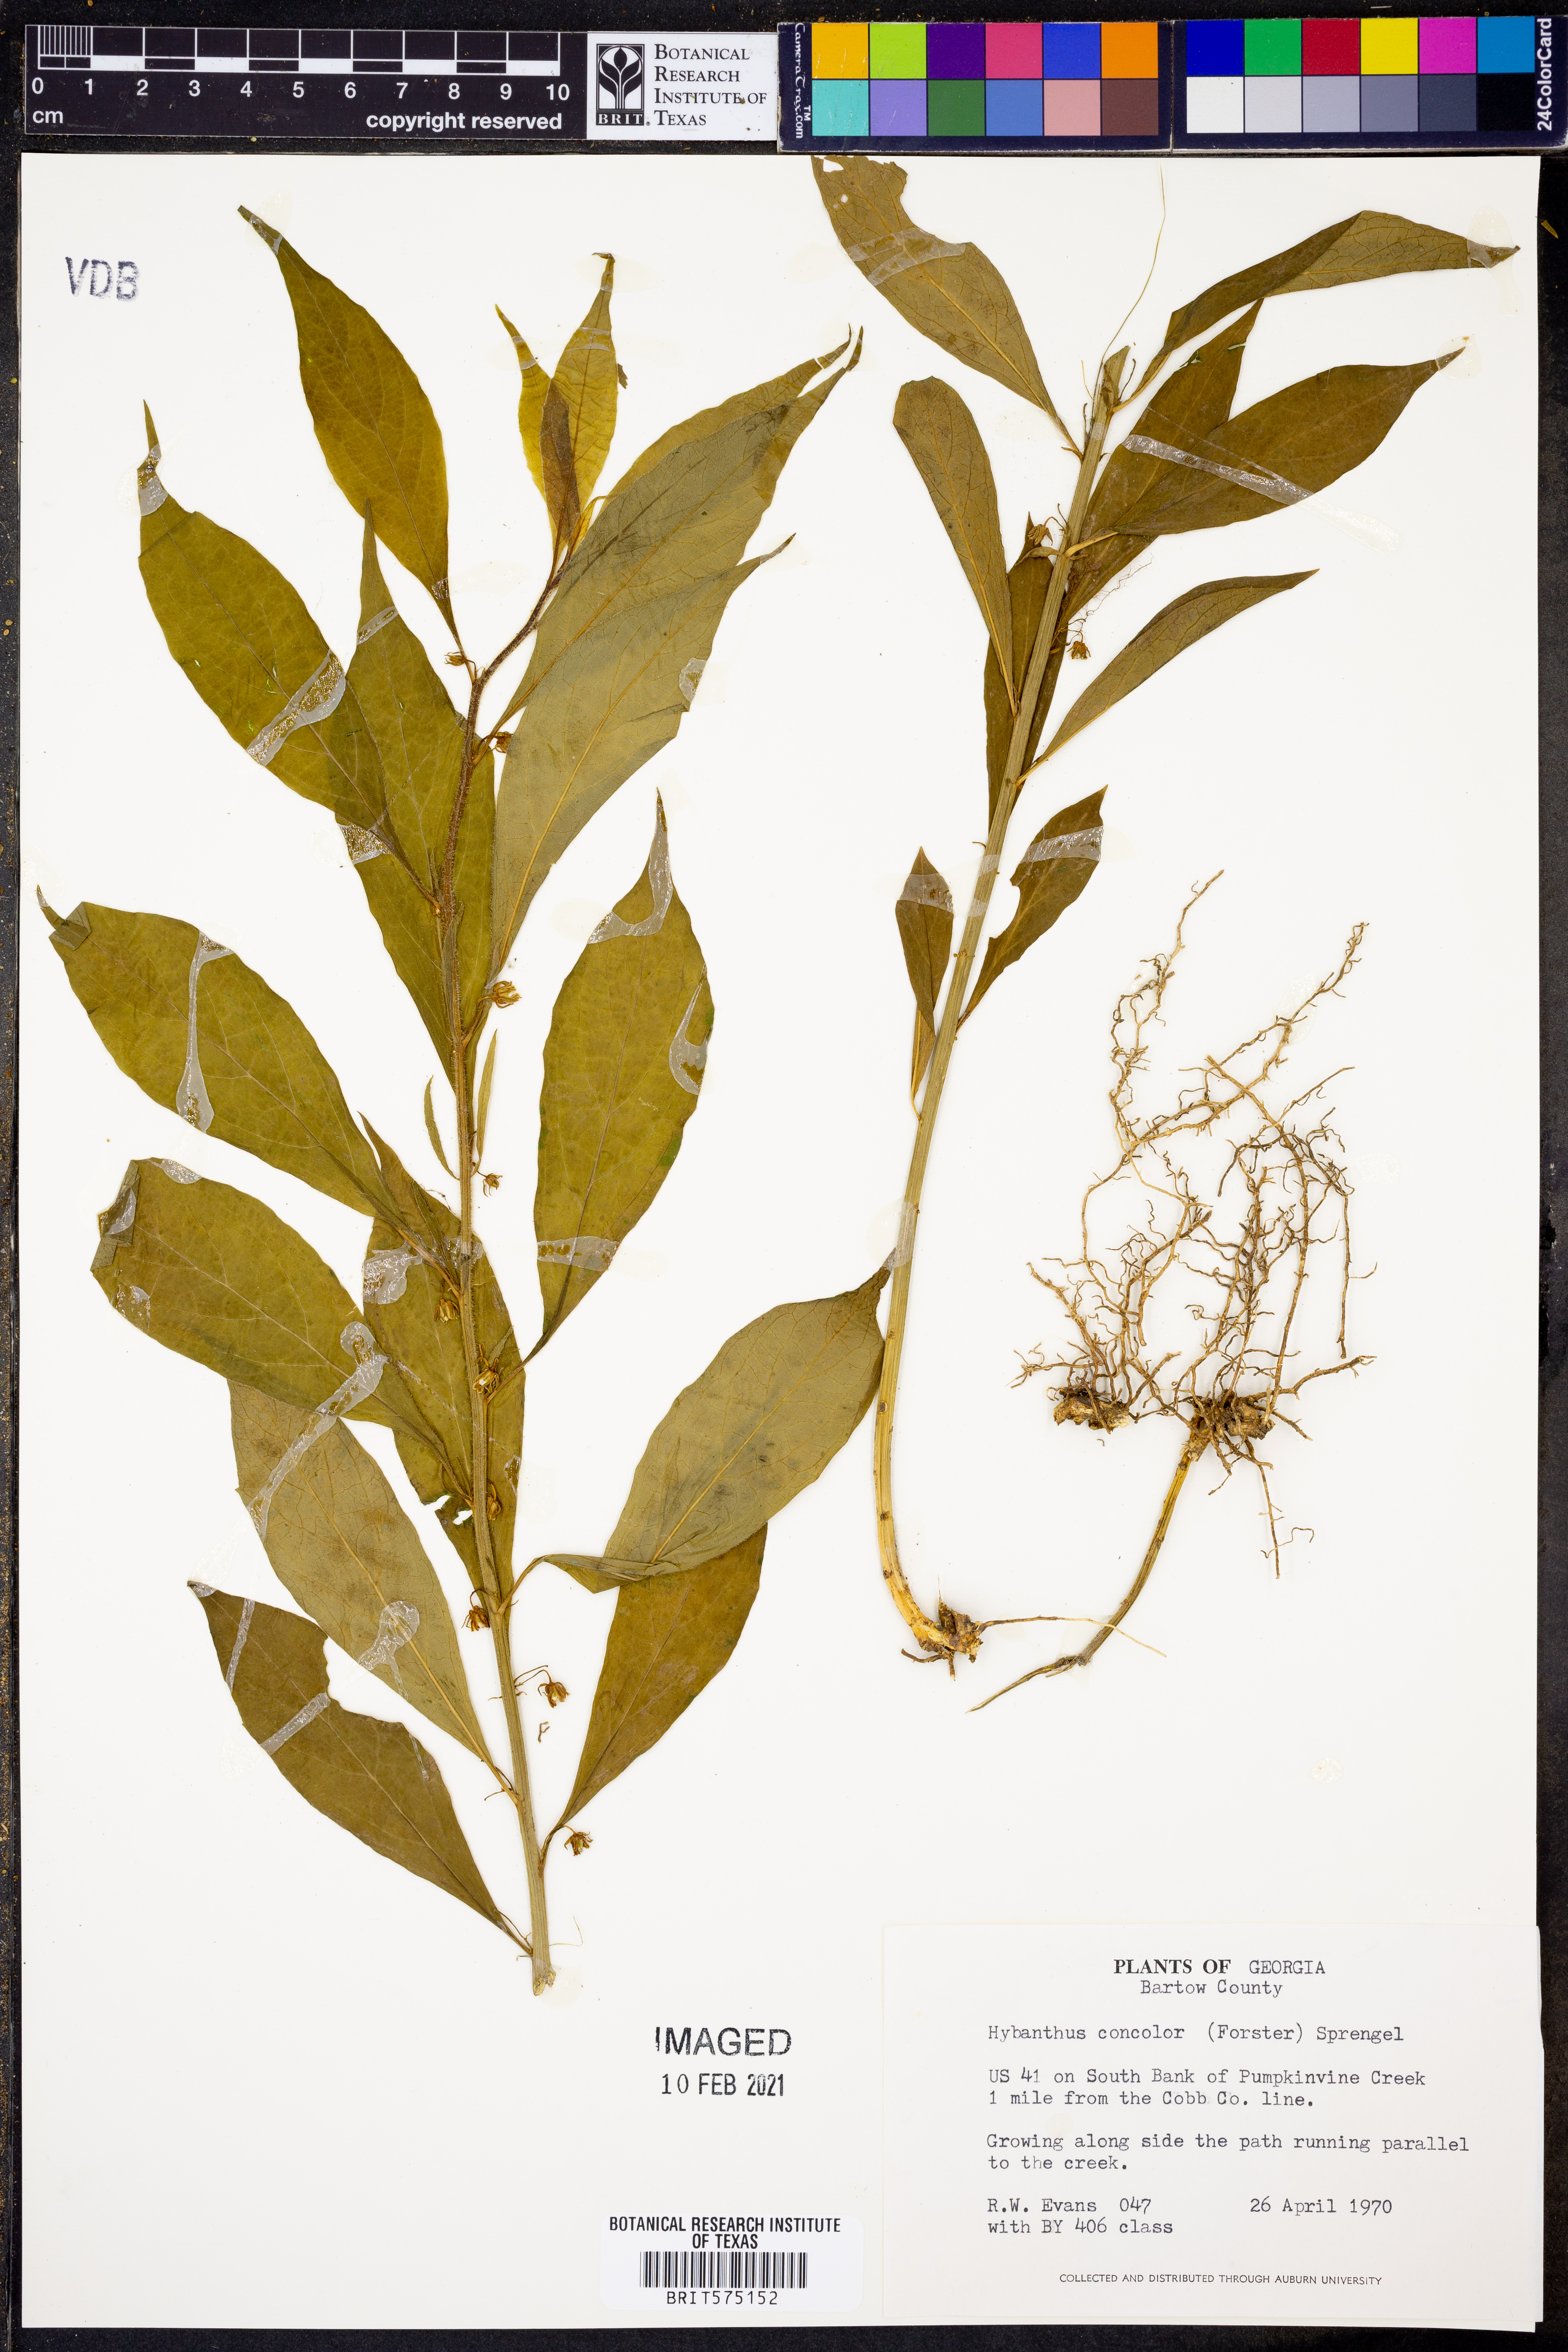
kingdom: Plantae
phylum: Tracheophyta
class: Magnoliopsida
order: Malpighiales
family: Violaceae
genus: Cubelium
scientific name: Cubelium concolor
